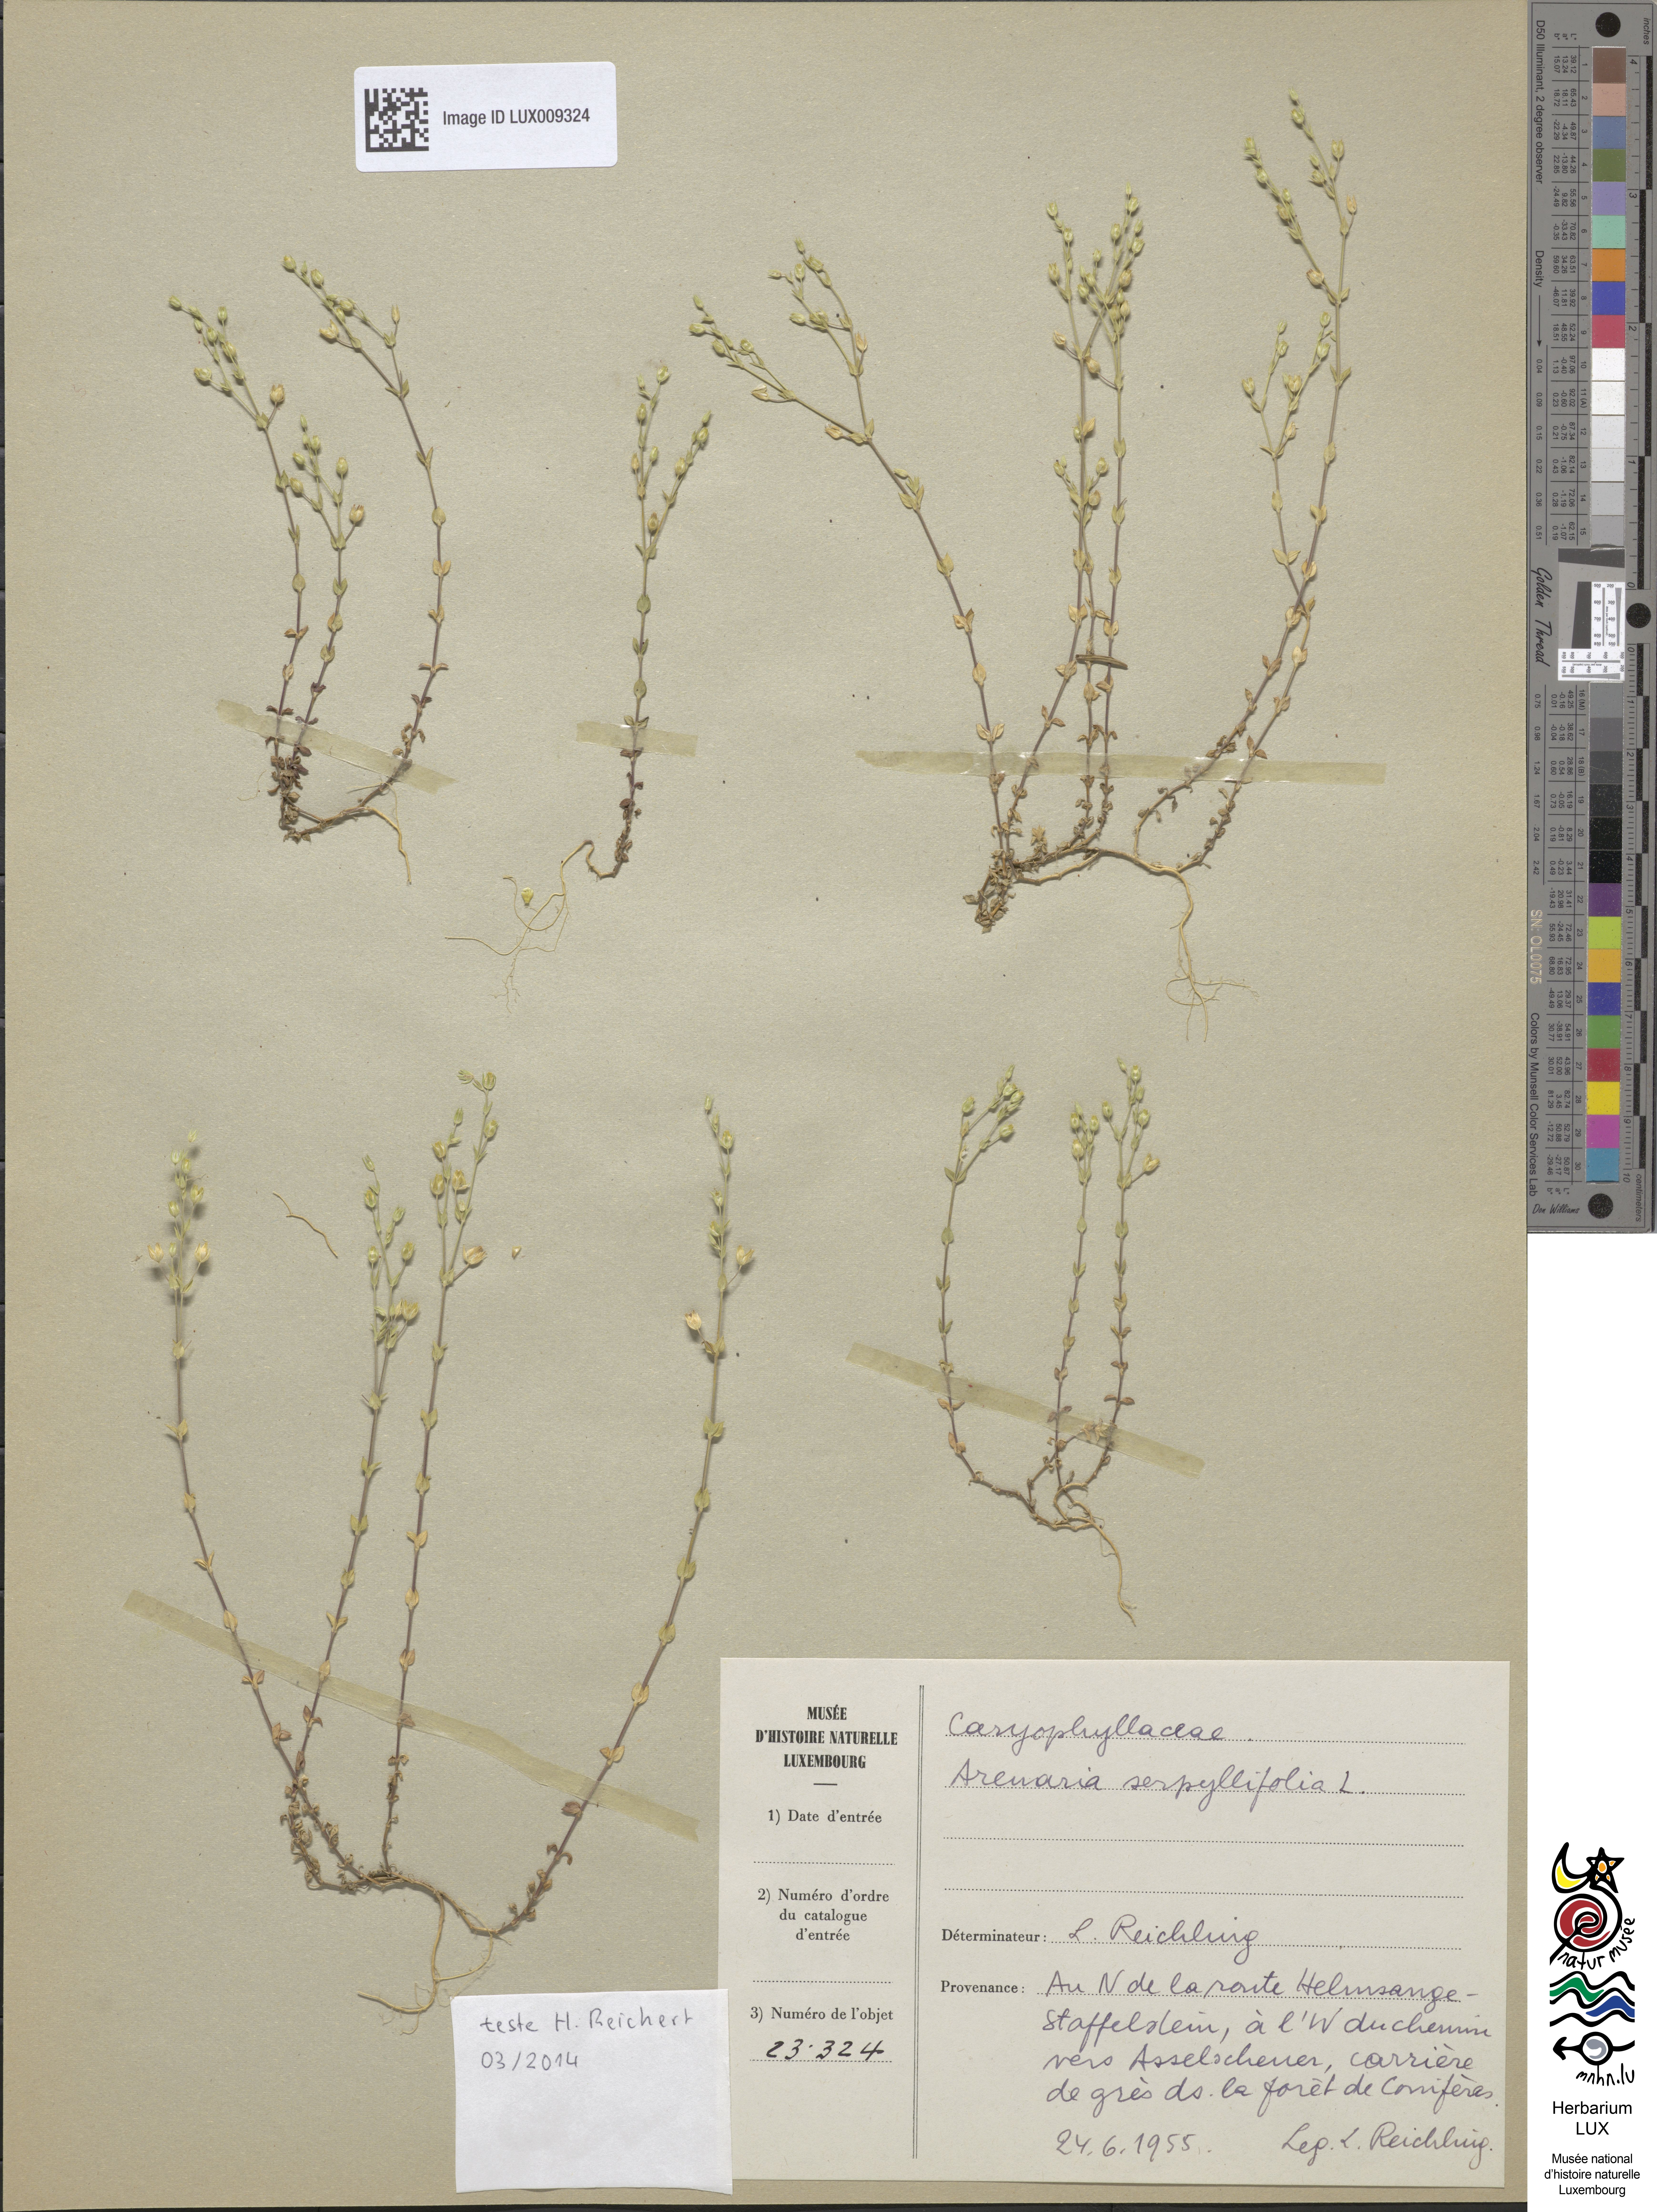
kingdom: Plantae
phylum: Tracheophyta
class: Magnoliopsida
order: Caryophyllales
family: Caryophyllaceae
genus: Arenaria
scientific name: Arenaria serpyllifolia
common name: Thyme-leaved sandwort
